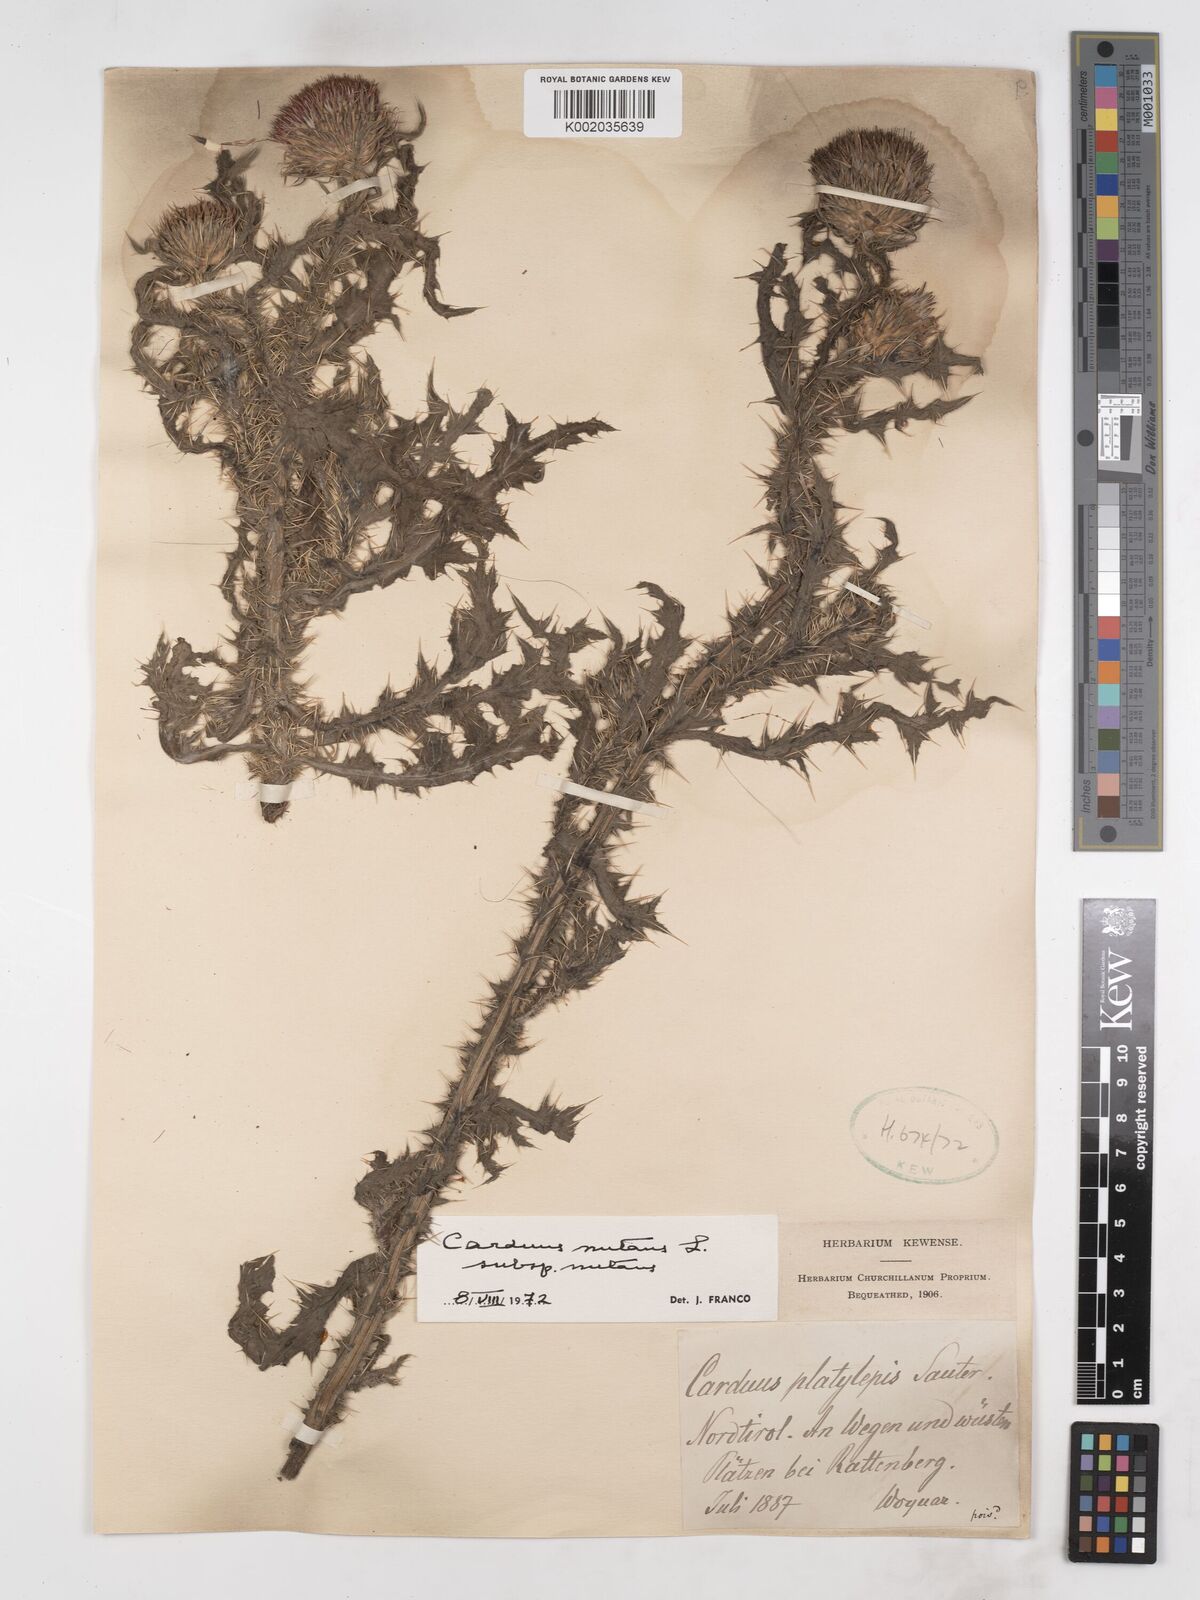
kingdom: Plantae
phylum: Tracheophyta
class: Magnoliopsida
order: Asterales
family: Asteraceae
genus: Carduus
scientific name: Carduus nutans
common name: Musk thistle
